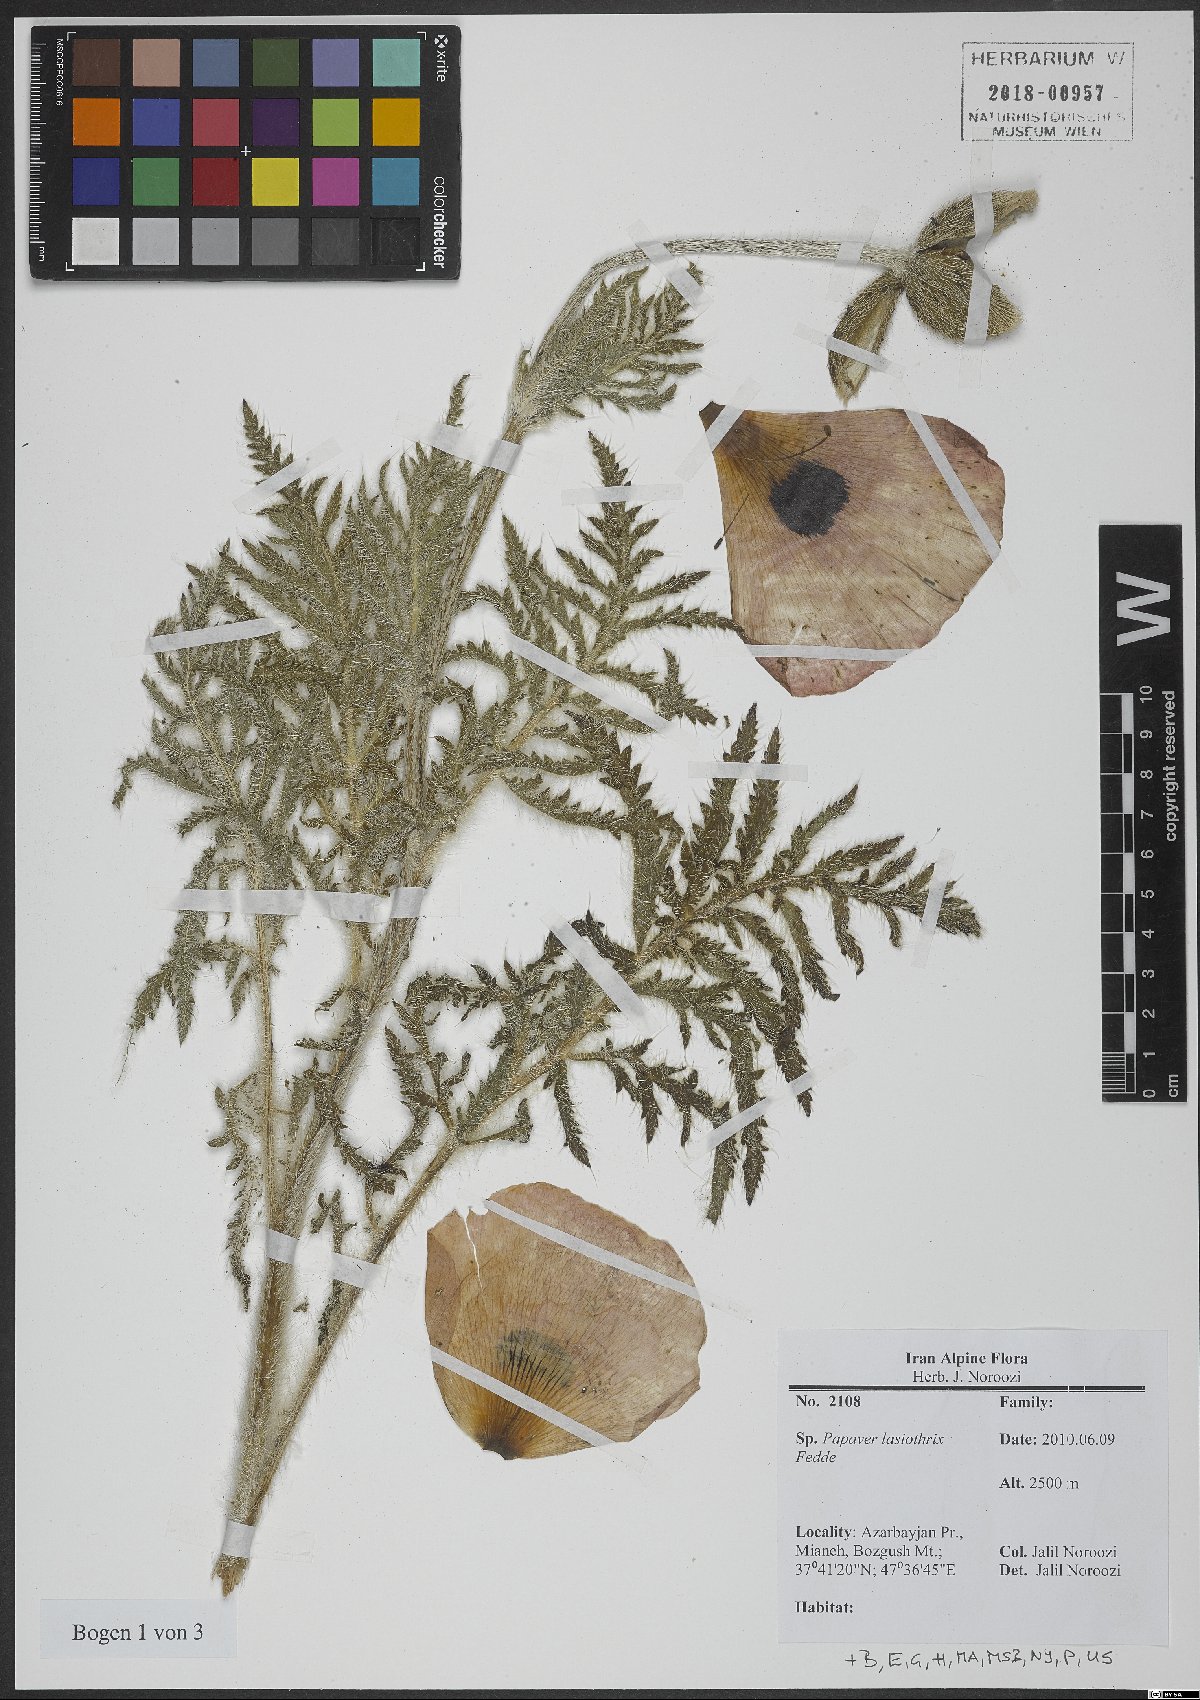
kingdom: Plantae
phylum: Tracheophyta
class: Magnoliopsida
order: Ranunculales
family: Papaveraceae
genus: Papaver
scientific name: Papaver setiferum
